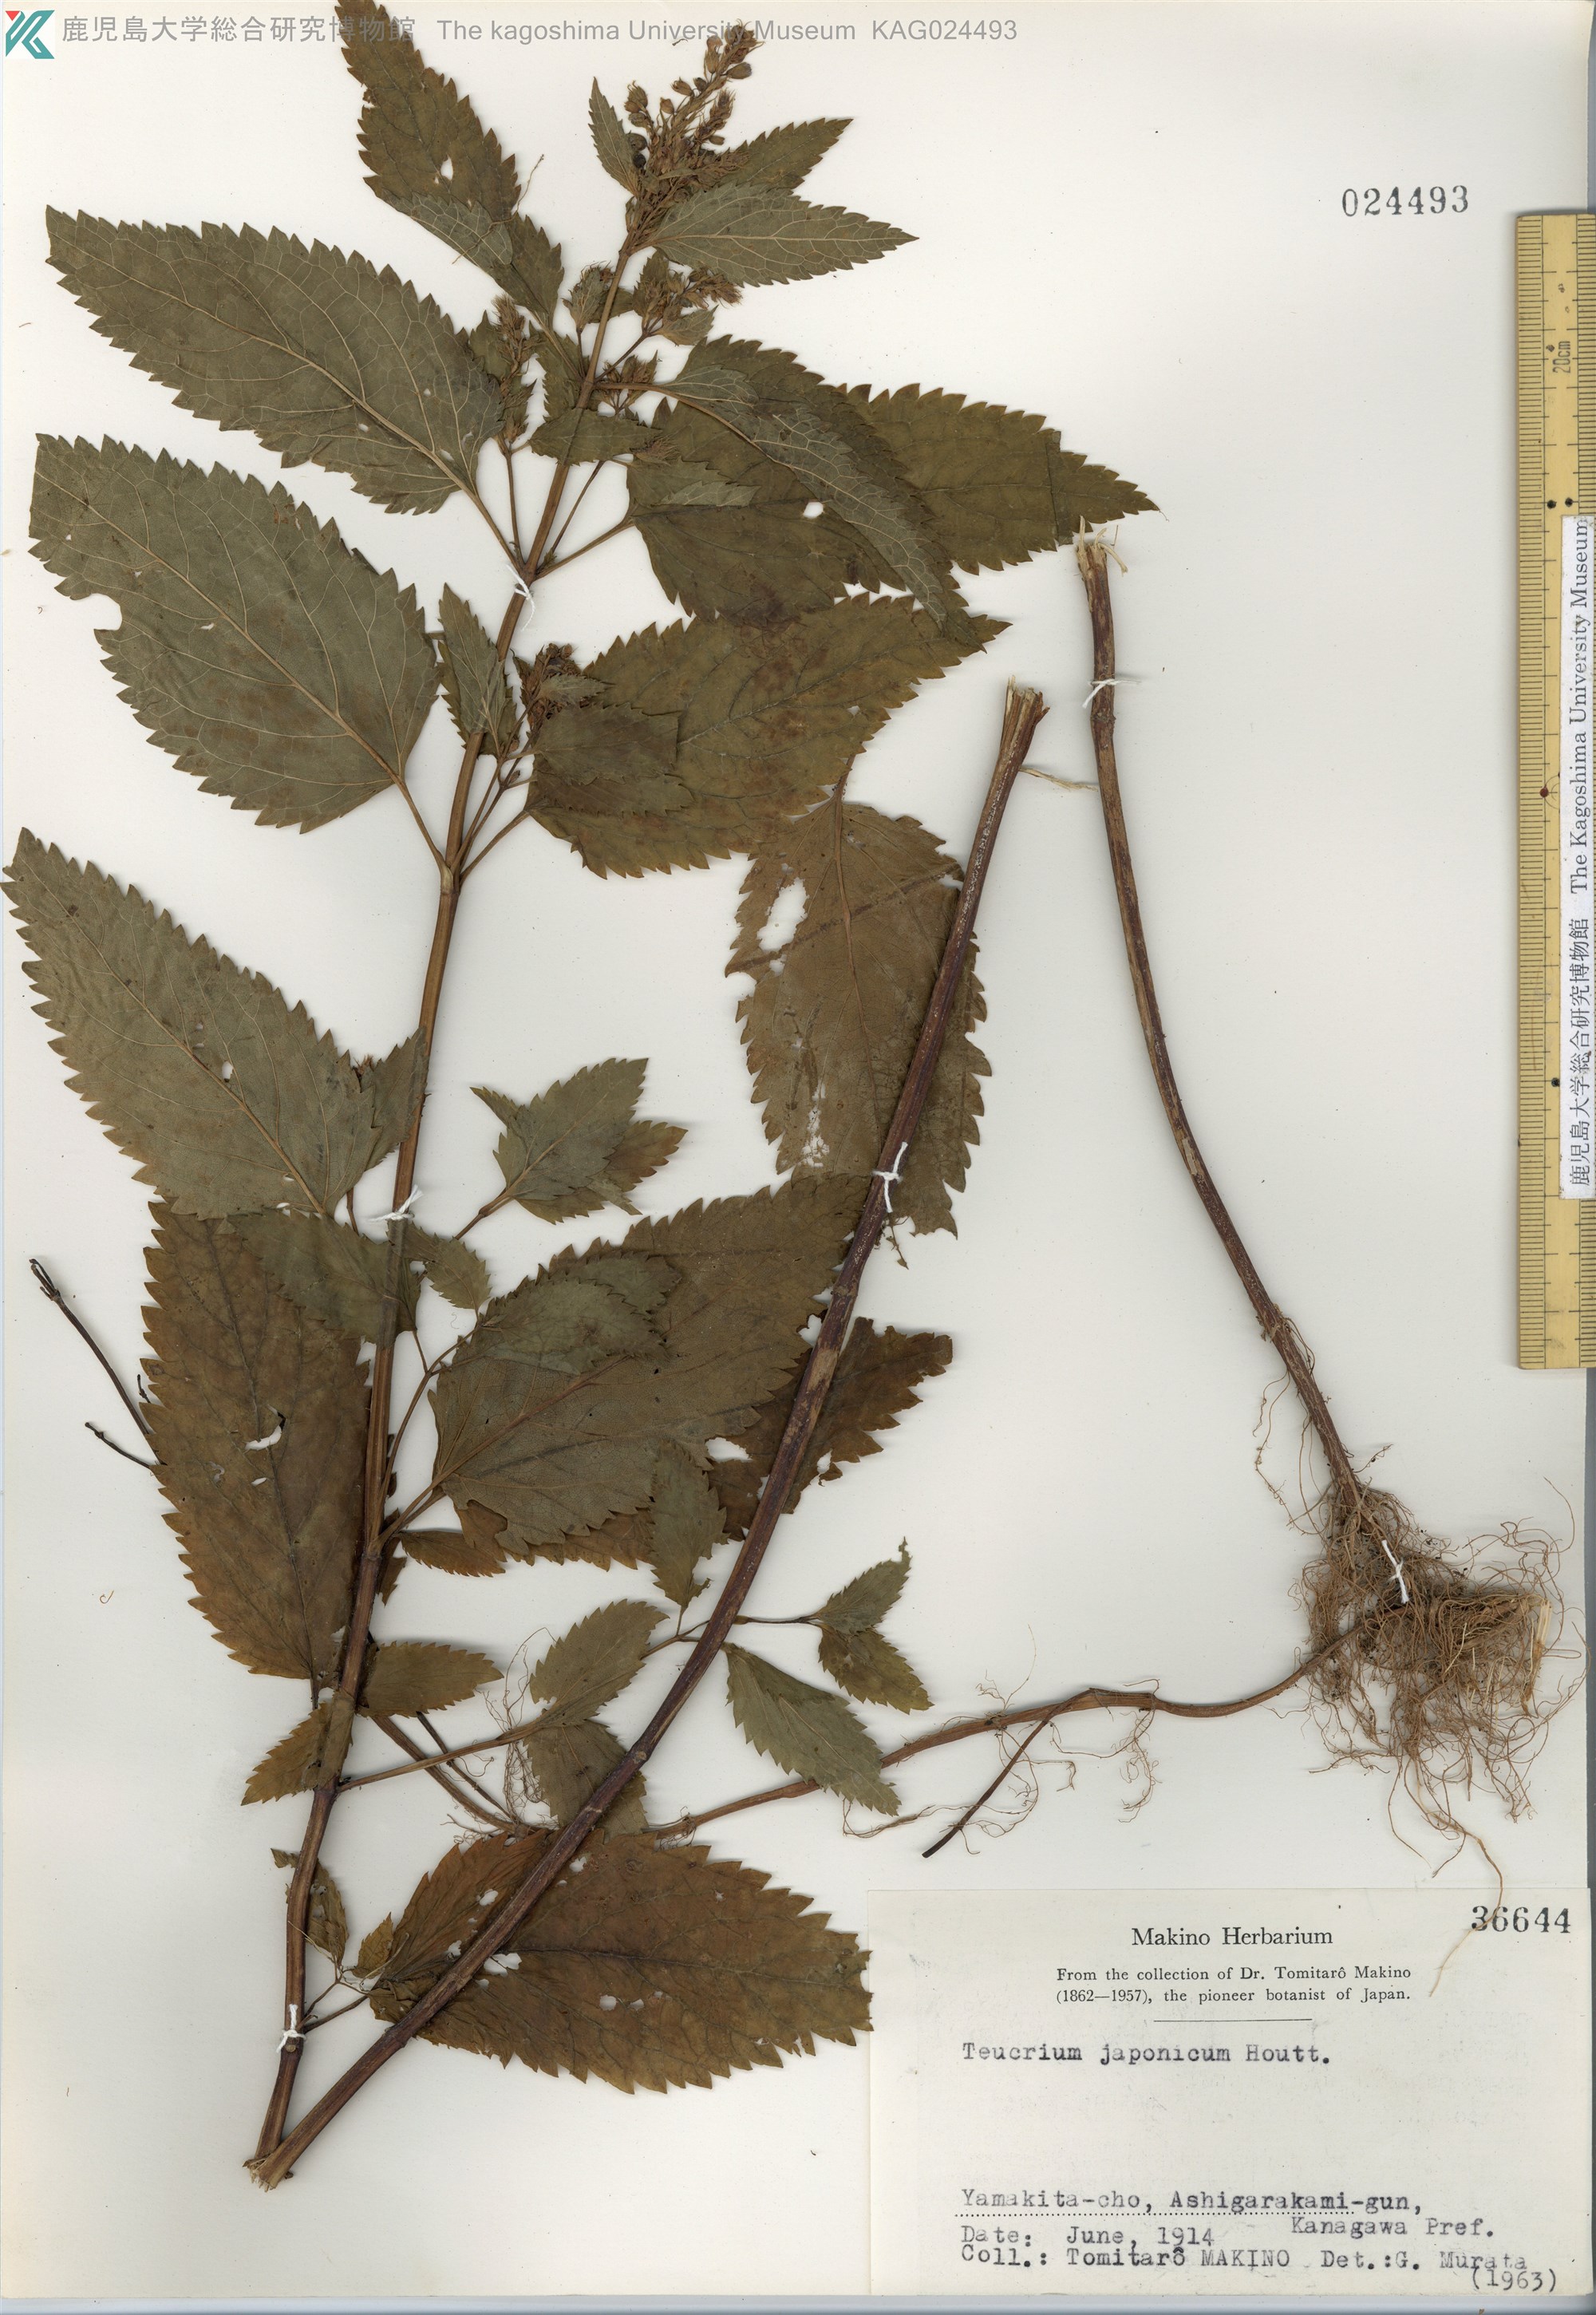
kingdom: Plantae
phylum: Tracheophyta
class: Magnoliopsida
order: Lamiales
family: Lamiaceae
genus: Teucrium
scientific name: Teucrium japonicum
